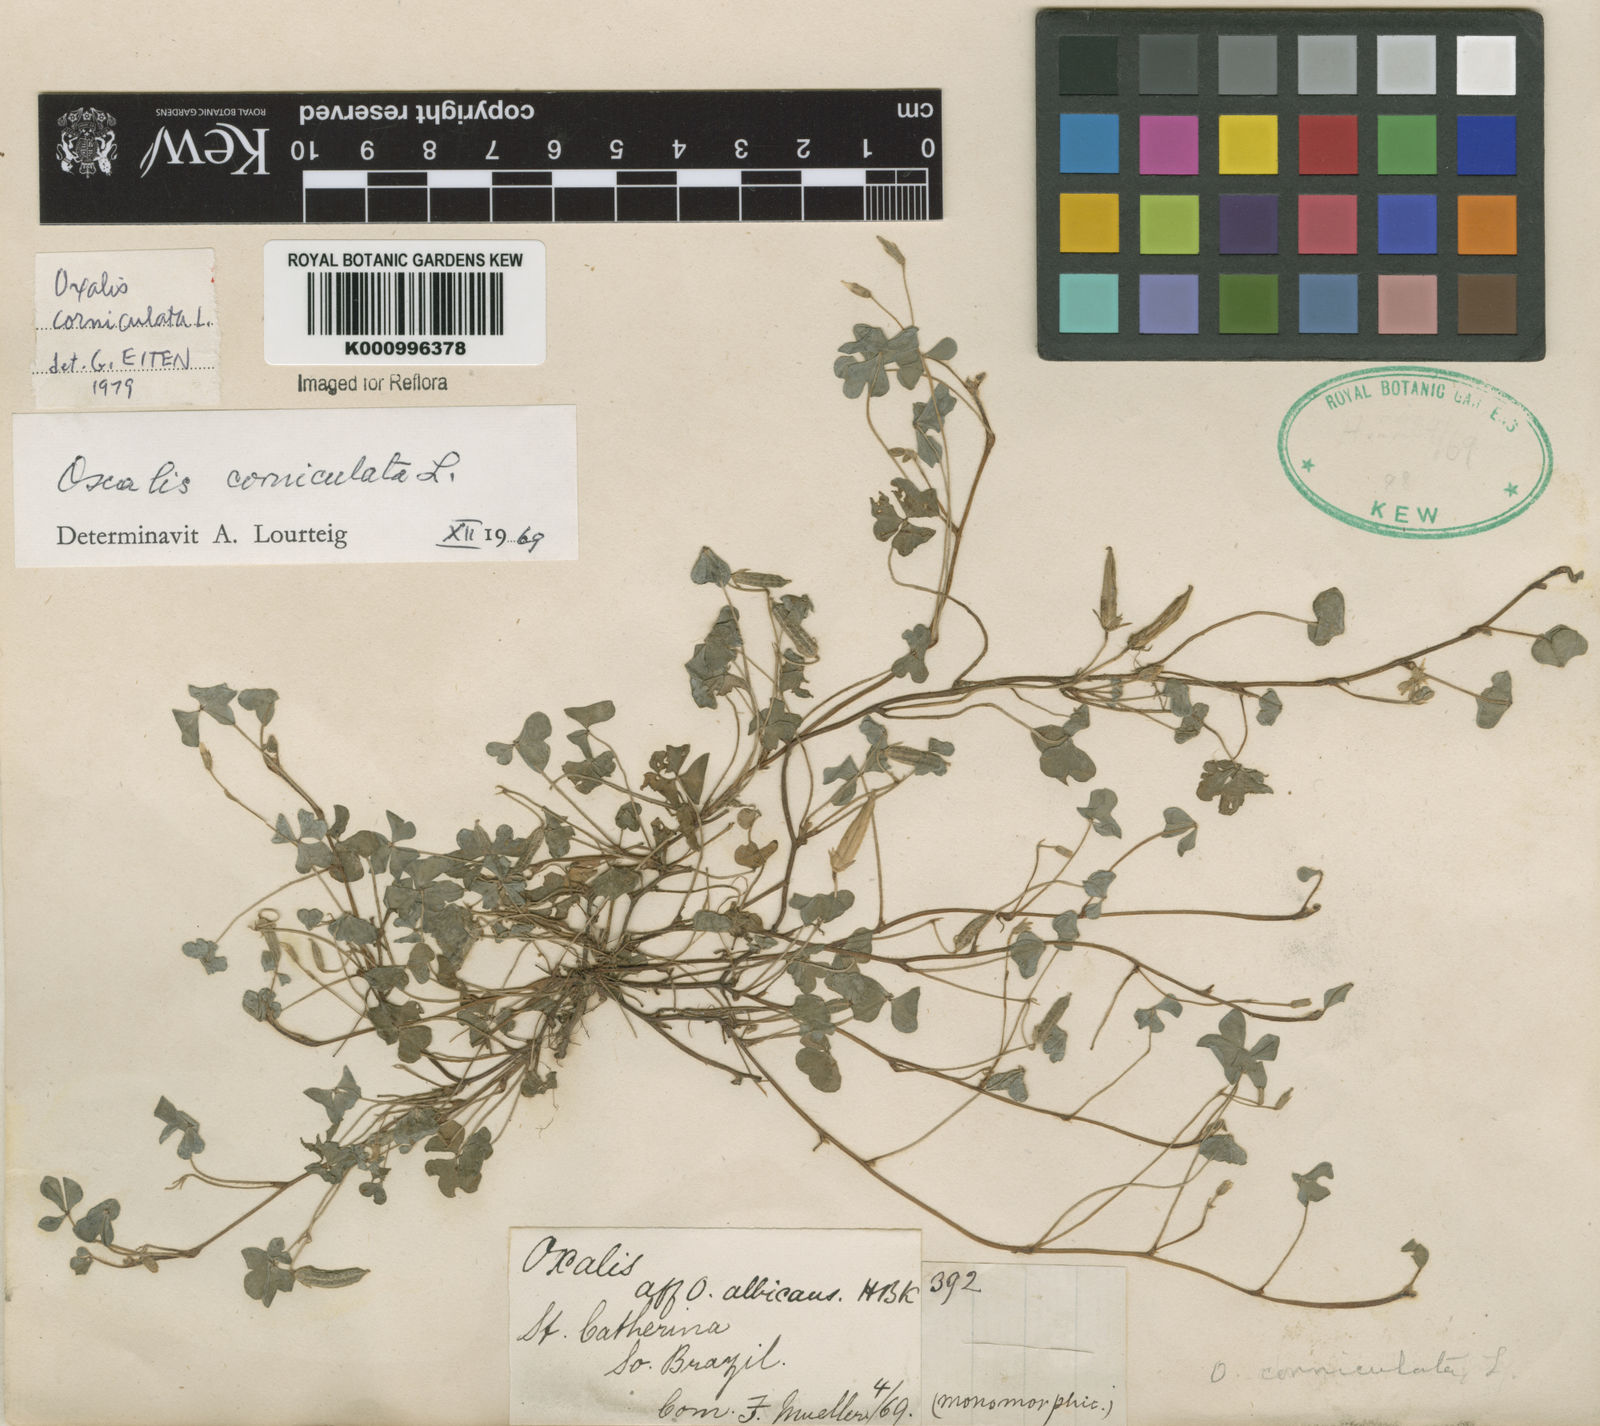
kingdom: Plantae
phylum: Tracheophyta
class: Magnoliopsida
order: Oxalidales
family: Oxalidaceae
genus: Oxalis
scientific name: Oxalis corniculata
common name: Procumbent yellow-sorrel
